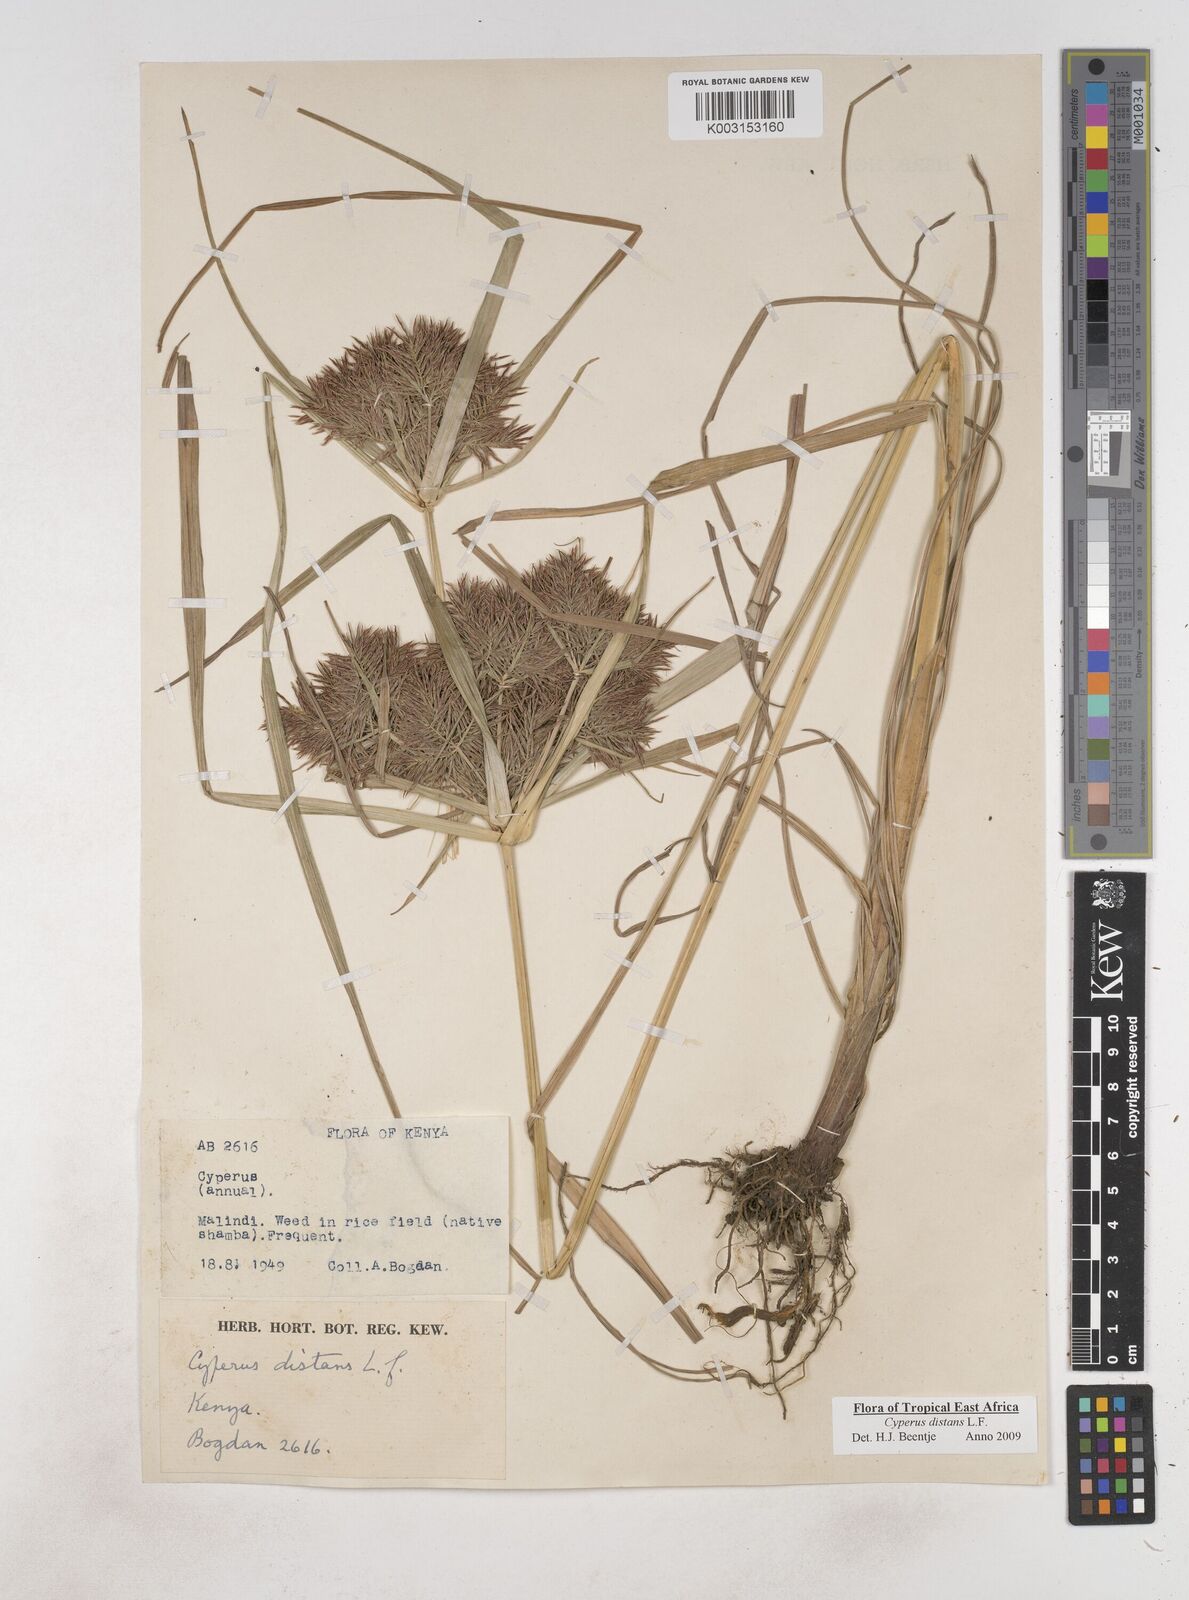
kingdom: Plantae
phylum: Tracheophyta
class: Liliopsida
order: Poales
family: Cyperaceae
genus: Cyperus
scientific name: Cyperus distans
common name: Slender cyperus
